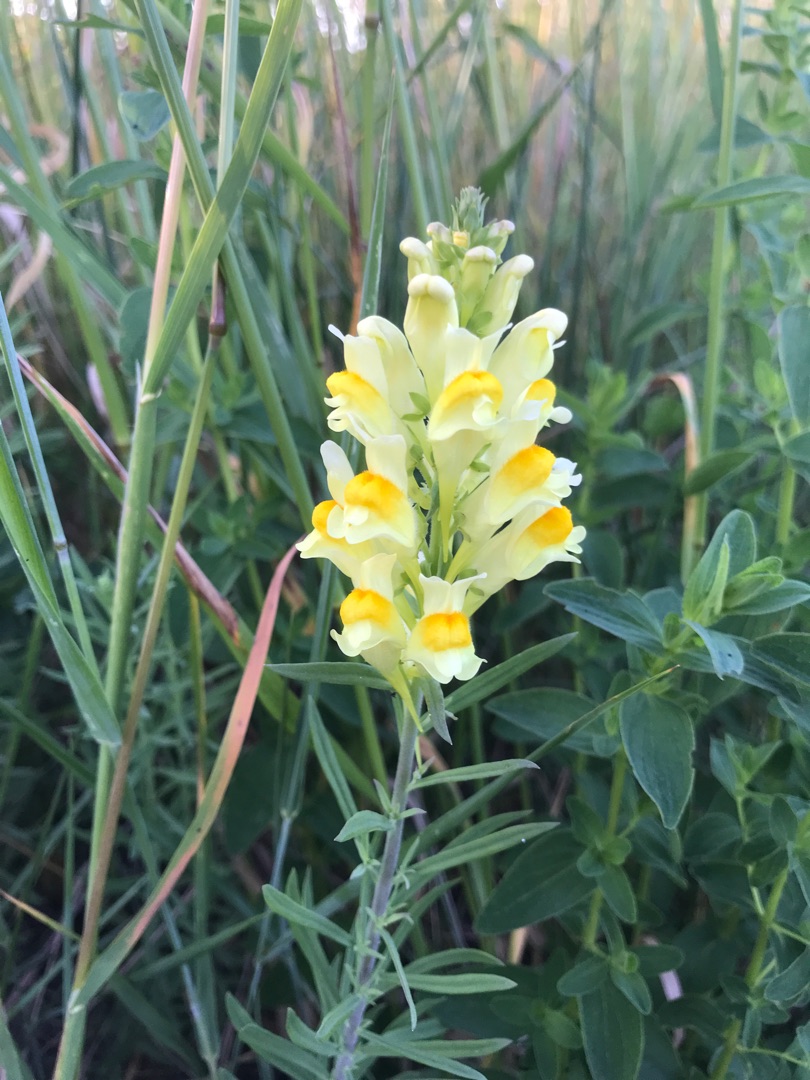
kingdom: Plantae
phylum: Tracheophyta
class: Magnoliopsida
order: Lamiales
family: Plantaginaceae
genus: Linaria
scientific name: Linaria vulgaris
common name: Almindelig torskemund
